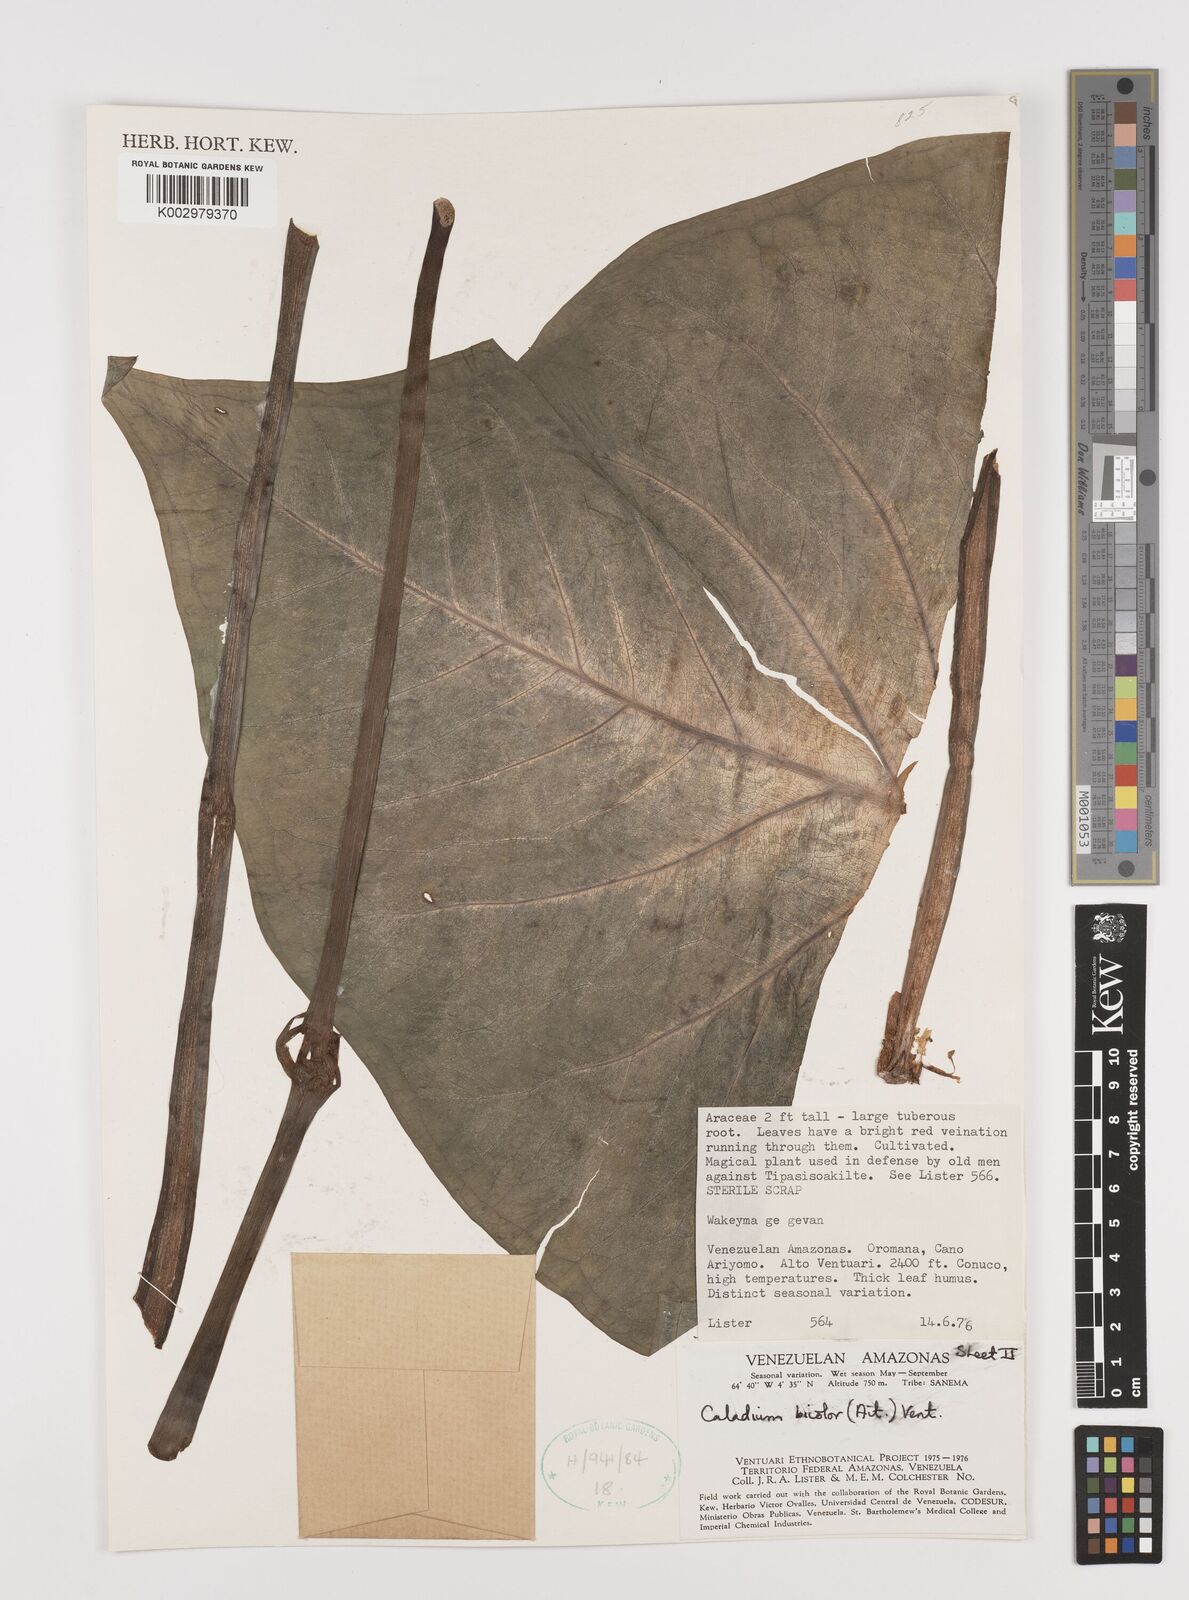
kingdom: Plantae
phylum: Tracheophyta
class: Liliopsida
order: Alismatales
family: Araceae
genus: Caladium
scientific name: Caladium bicolor
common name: Artist's pallet
